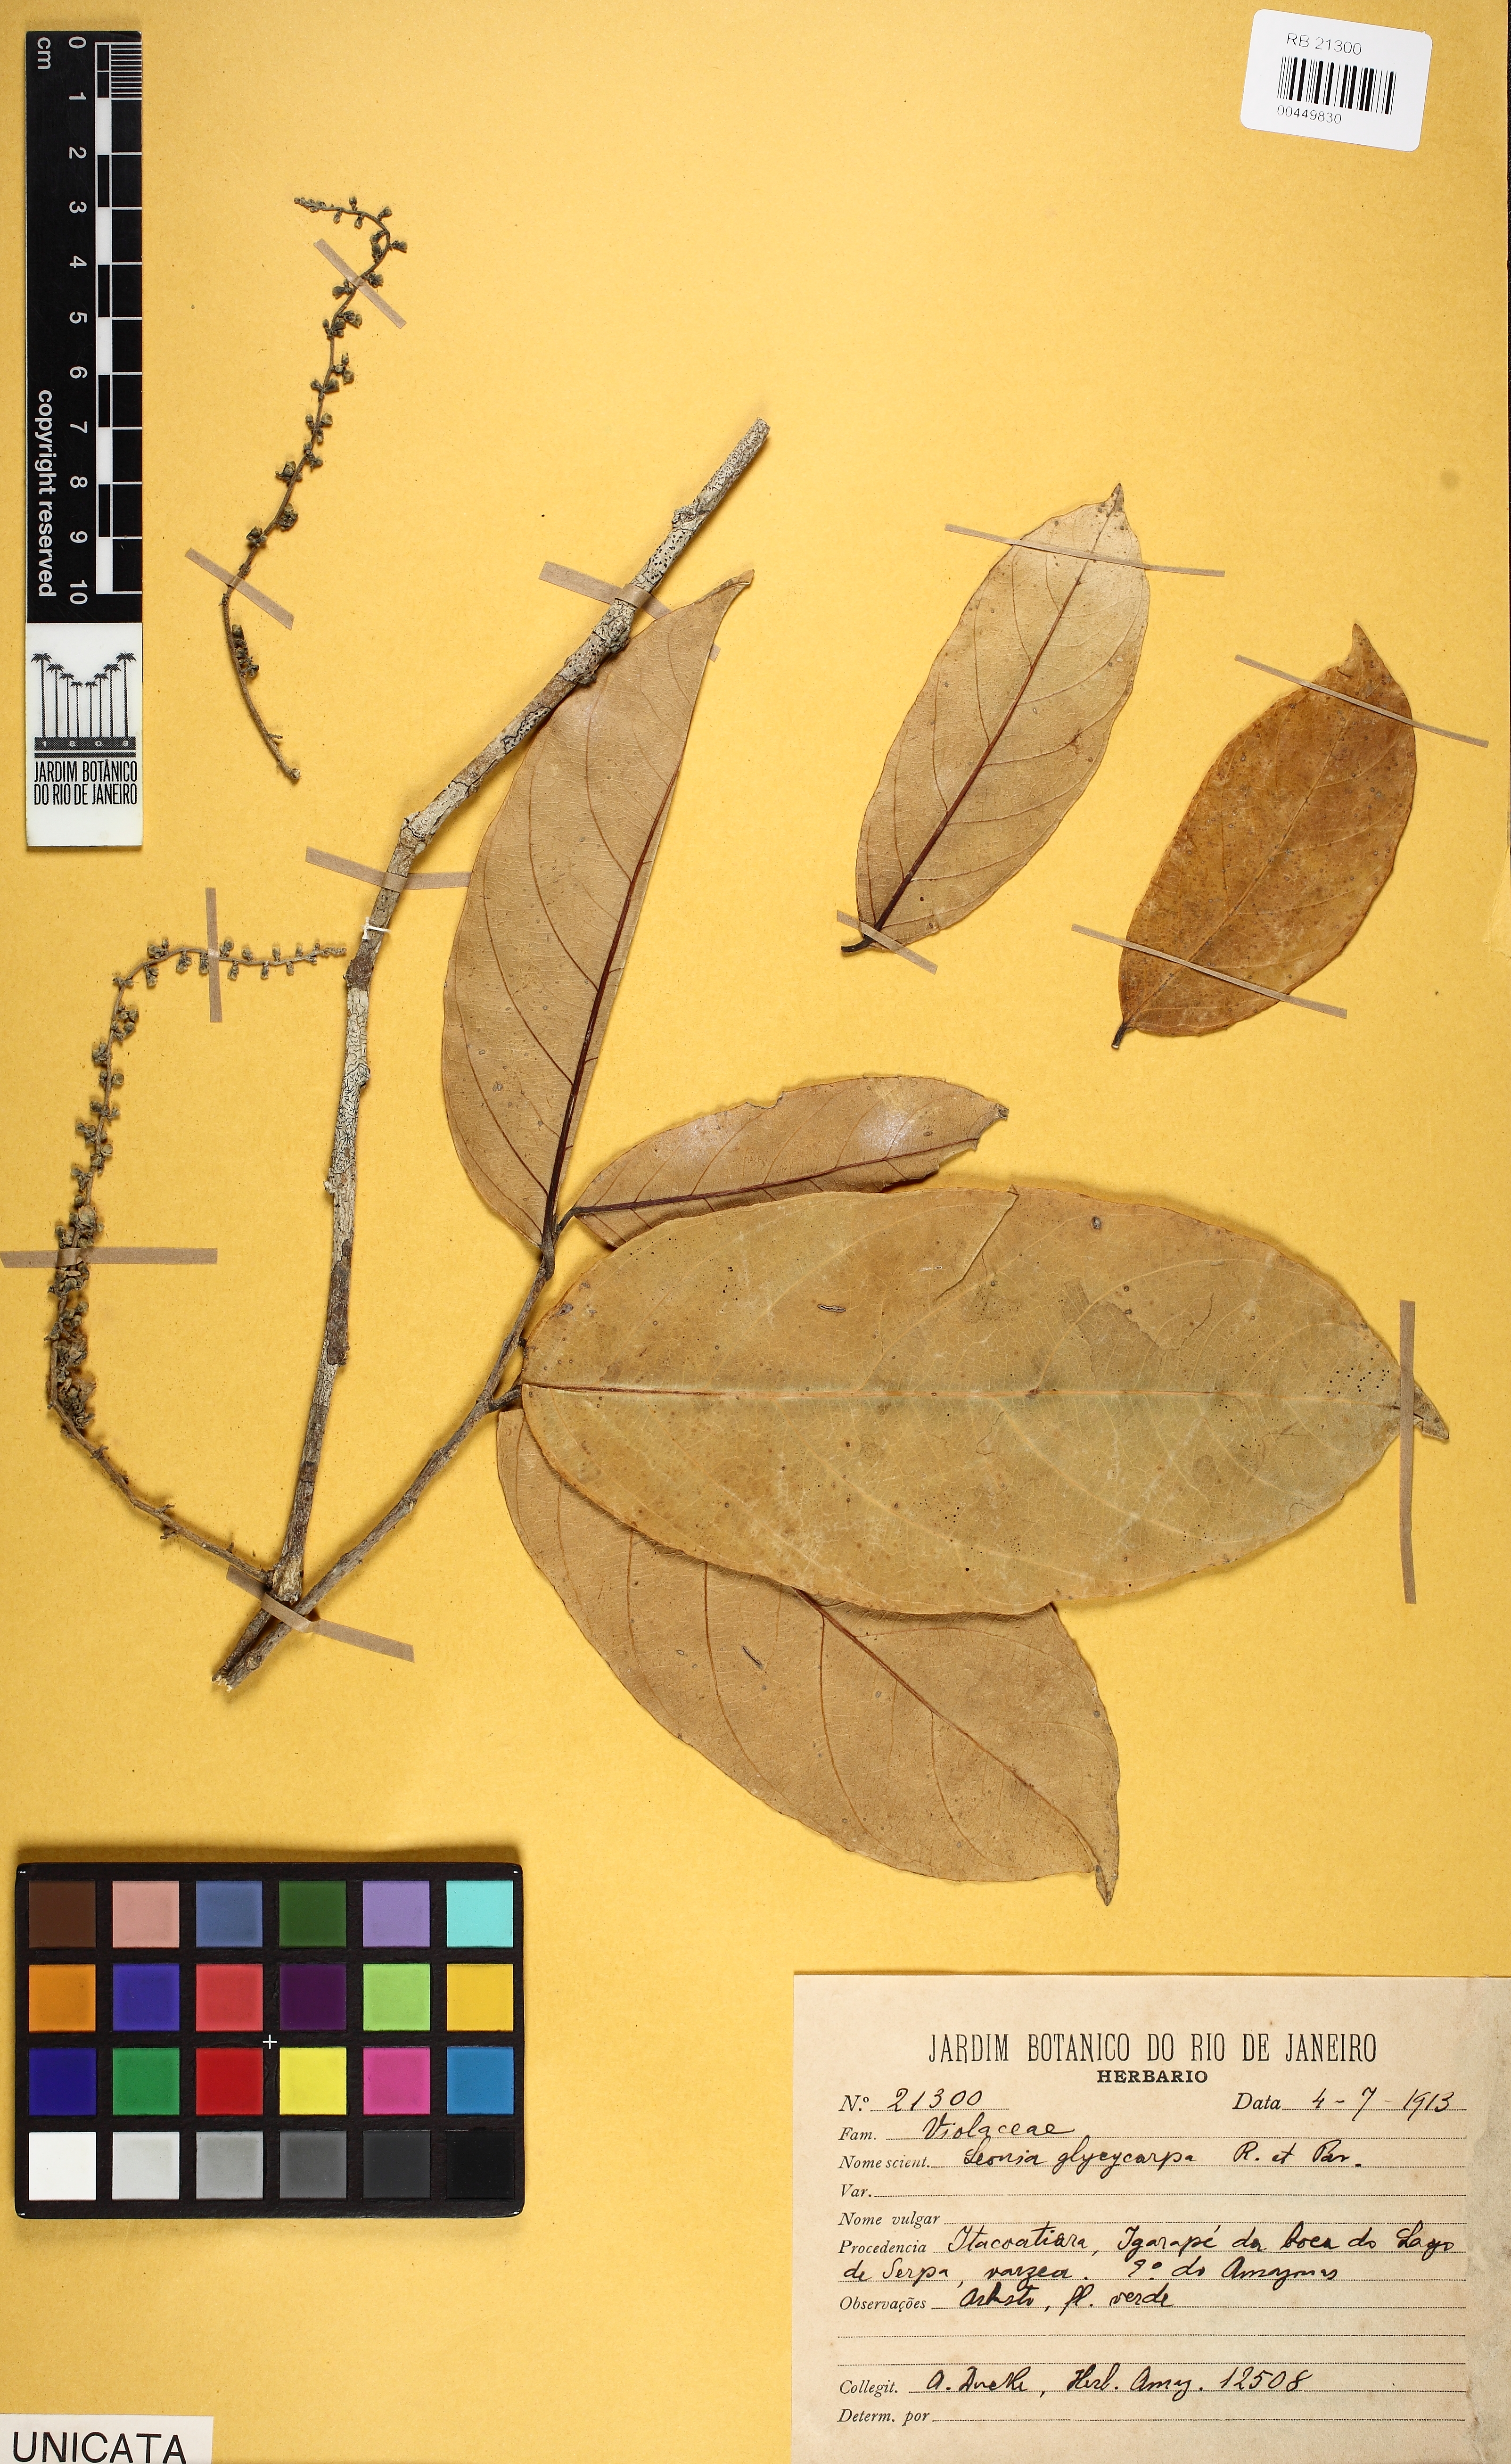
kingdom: Plantae
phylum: Tracheophyta
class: Magnoliopsida
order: Malpighiales
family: Violaceae
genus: Leonia
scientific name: Leonia glycycarpa
